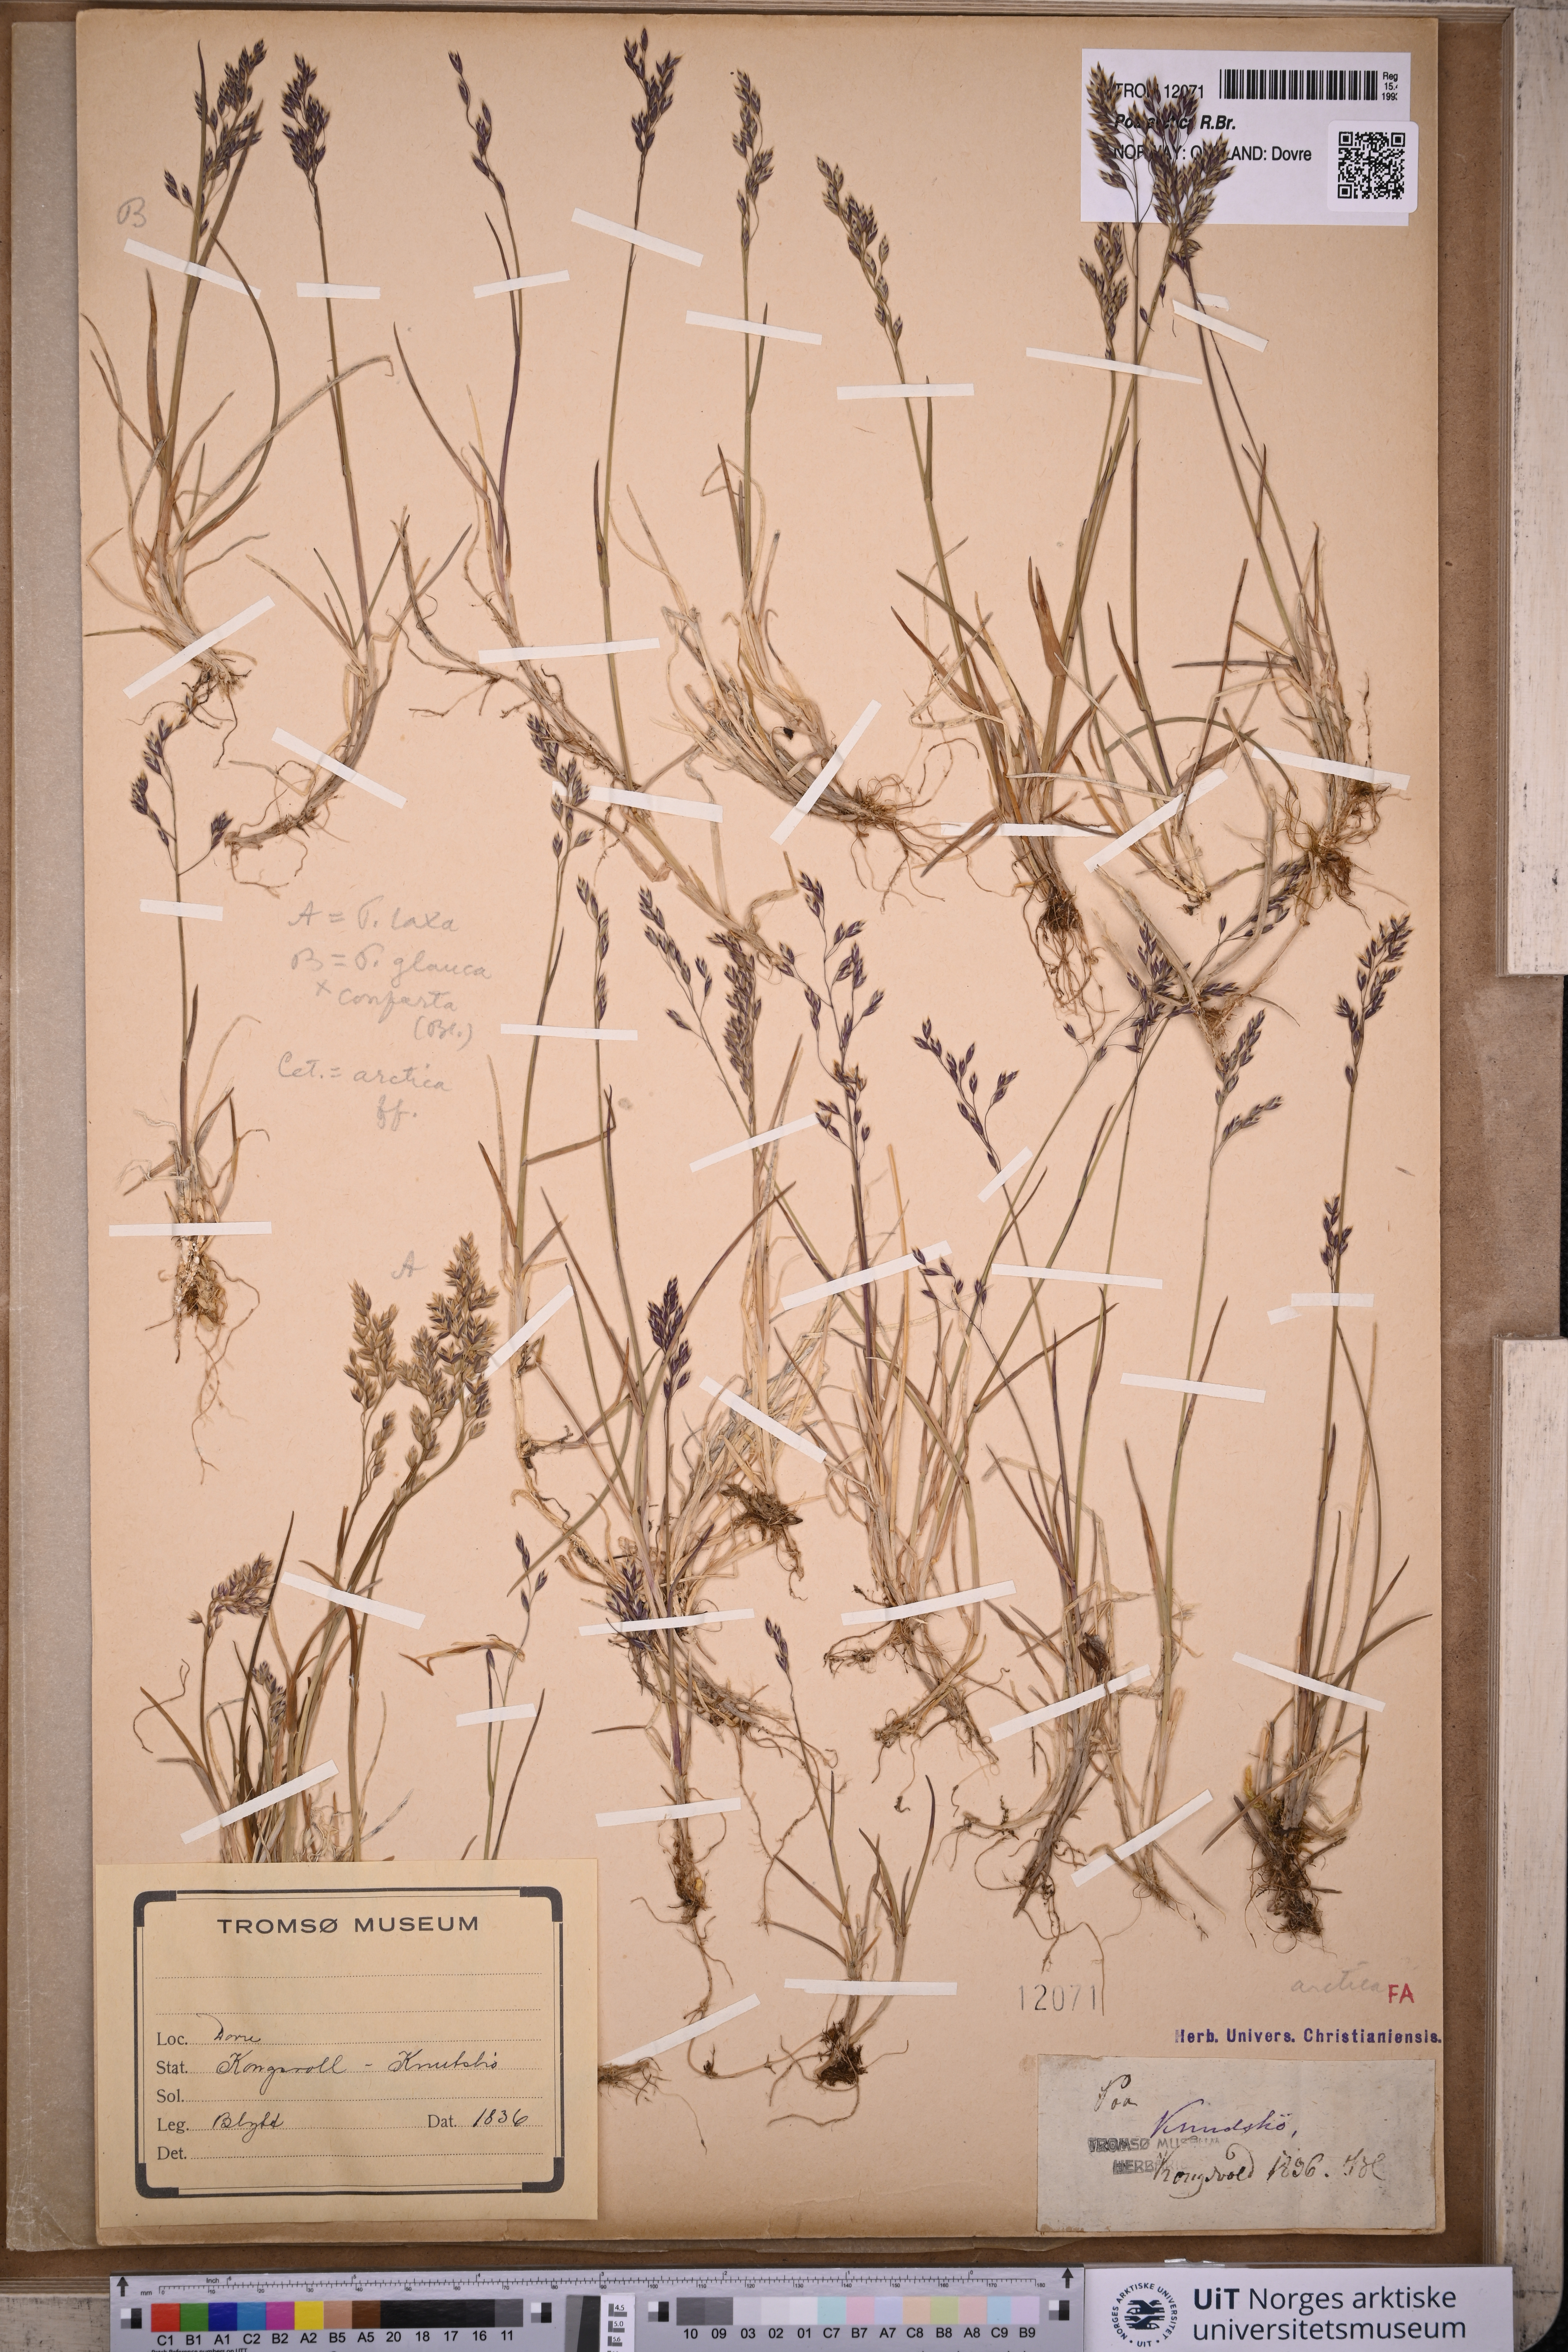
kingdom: Plantae
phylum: Tracheophyta
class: Liliopsida
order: Poales
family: Poaceae
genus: Poa
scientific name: Poa arctica
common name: Arctic bluegrass
